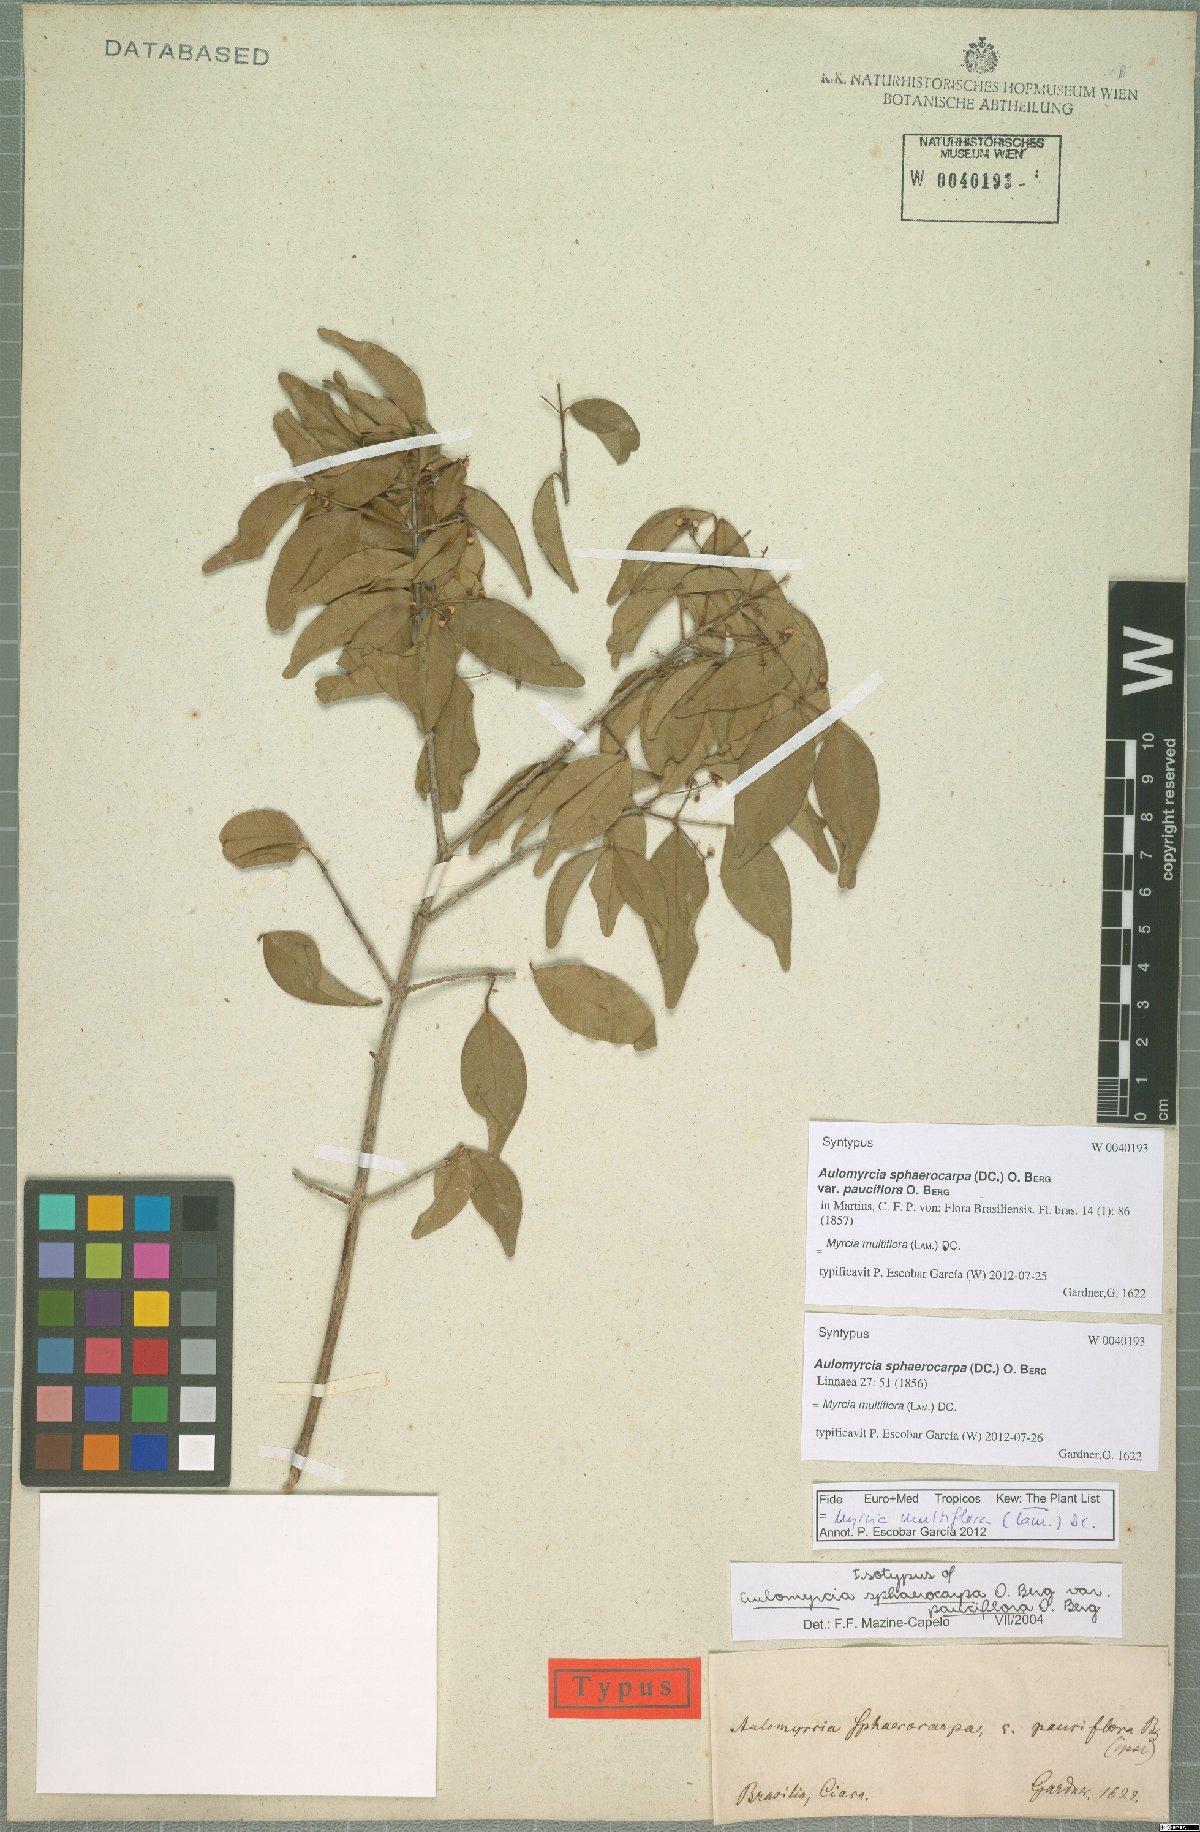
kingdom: Plantae
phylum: Tracheophyta
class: Magnoliopsida
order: Myrtales
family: Myrtaceae
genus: Myrcia
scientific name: Myrcia multiflora
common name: Pedra hume
